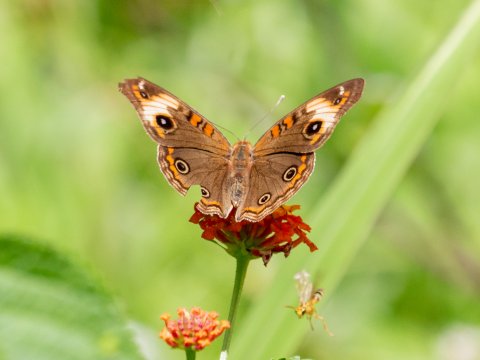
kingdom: Animalia
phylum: Arthropoda
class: Insecta
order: Lepidoptera
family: Nymphalidae
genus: Junonia
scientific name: Junonia lavinia
